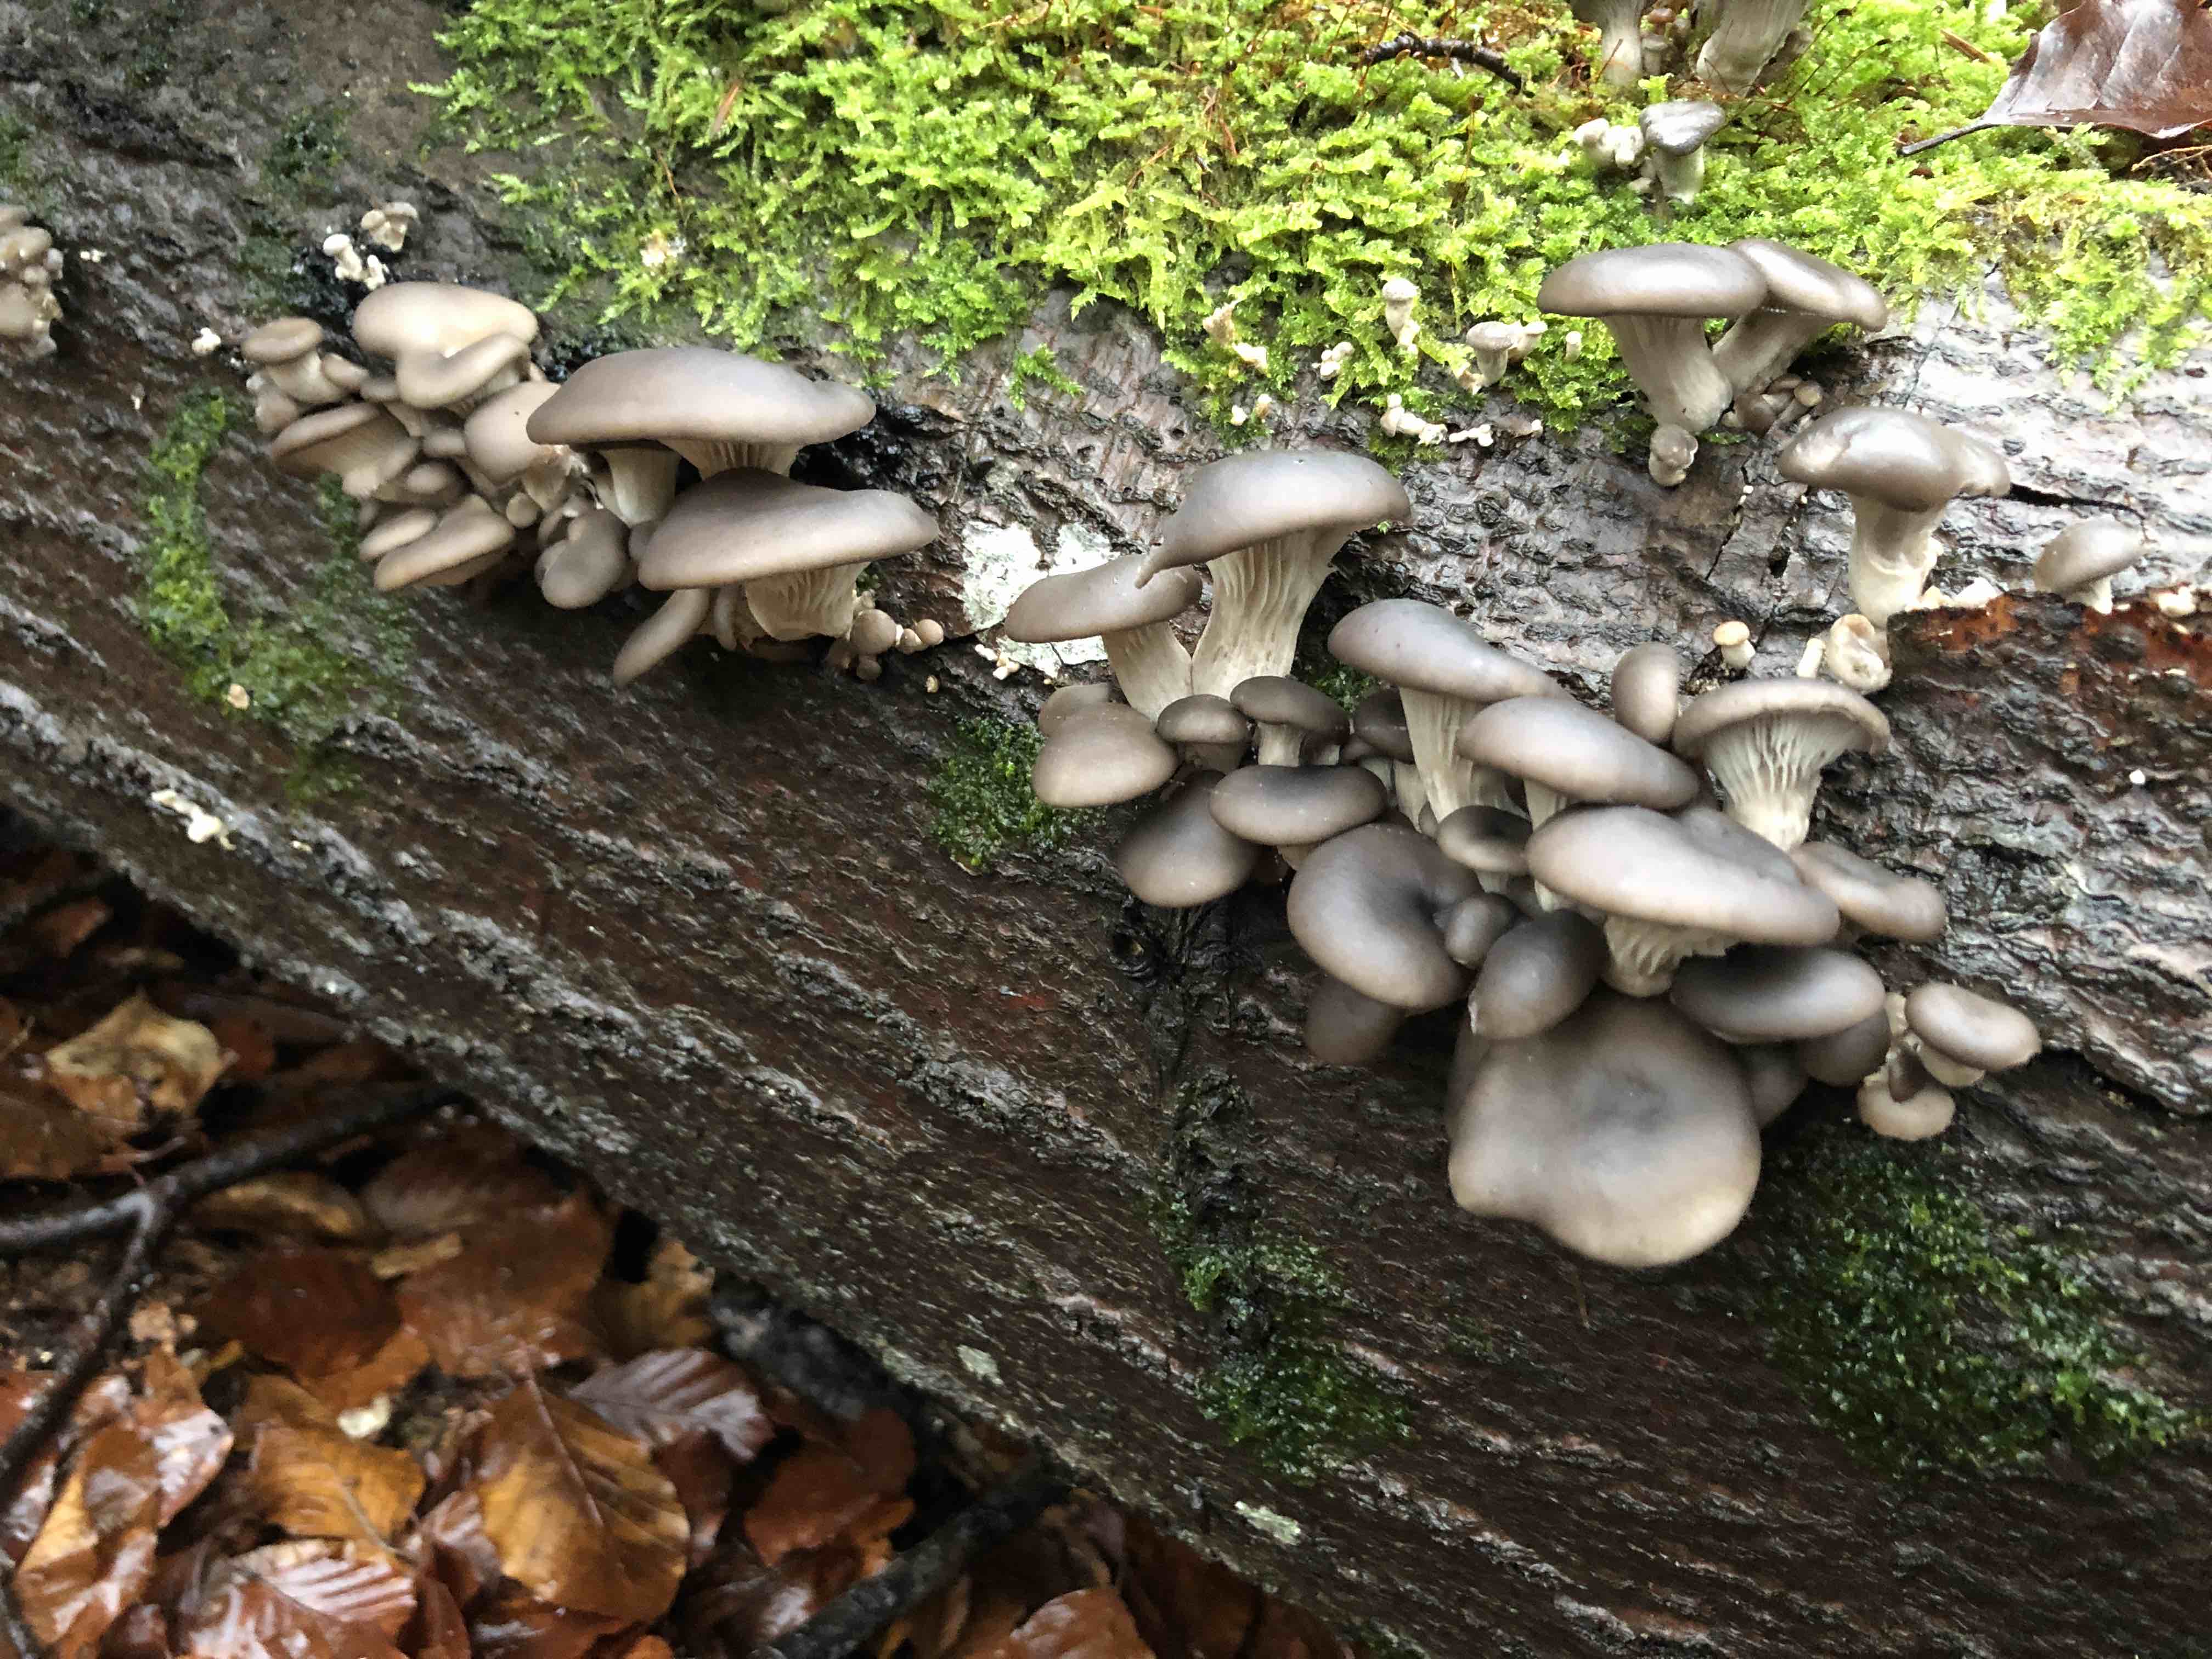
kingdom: Fungi
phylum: Basidiomycota
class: Agaricomycetes
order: Agaricales
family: Pleurotaceae
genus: Pleurotus
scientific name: Pleurotus ostreatus
